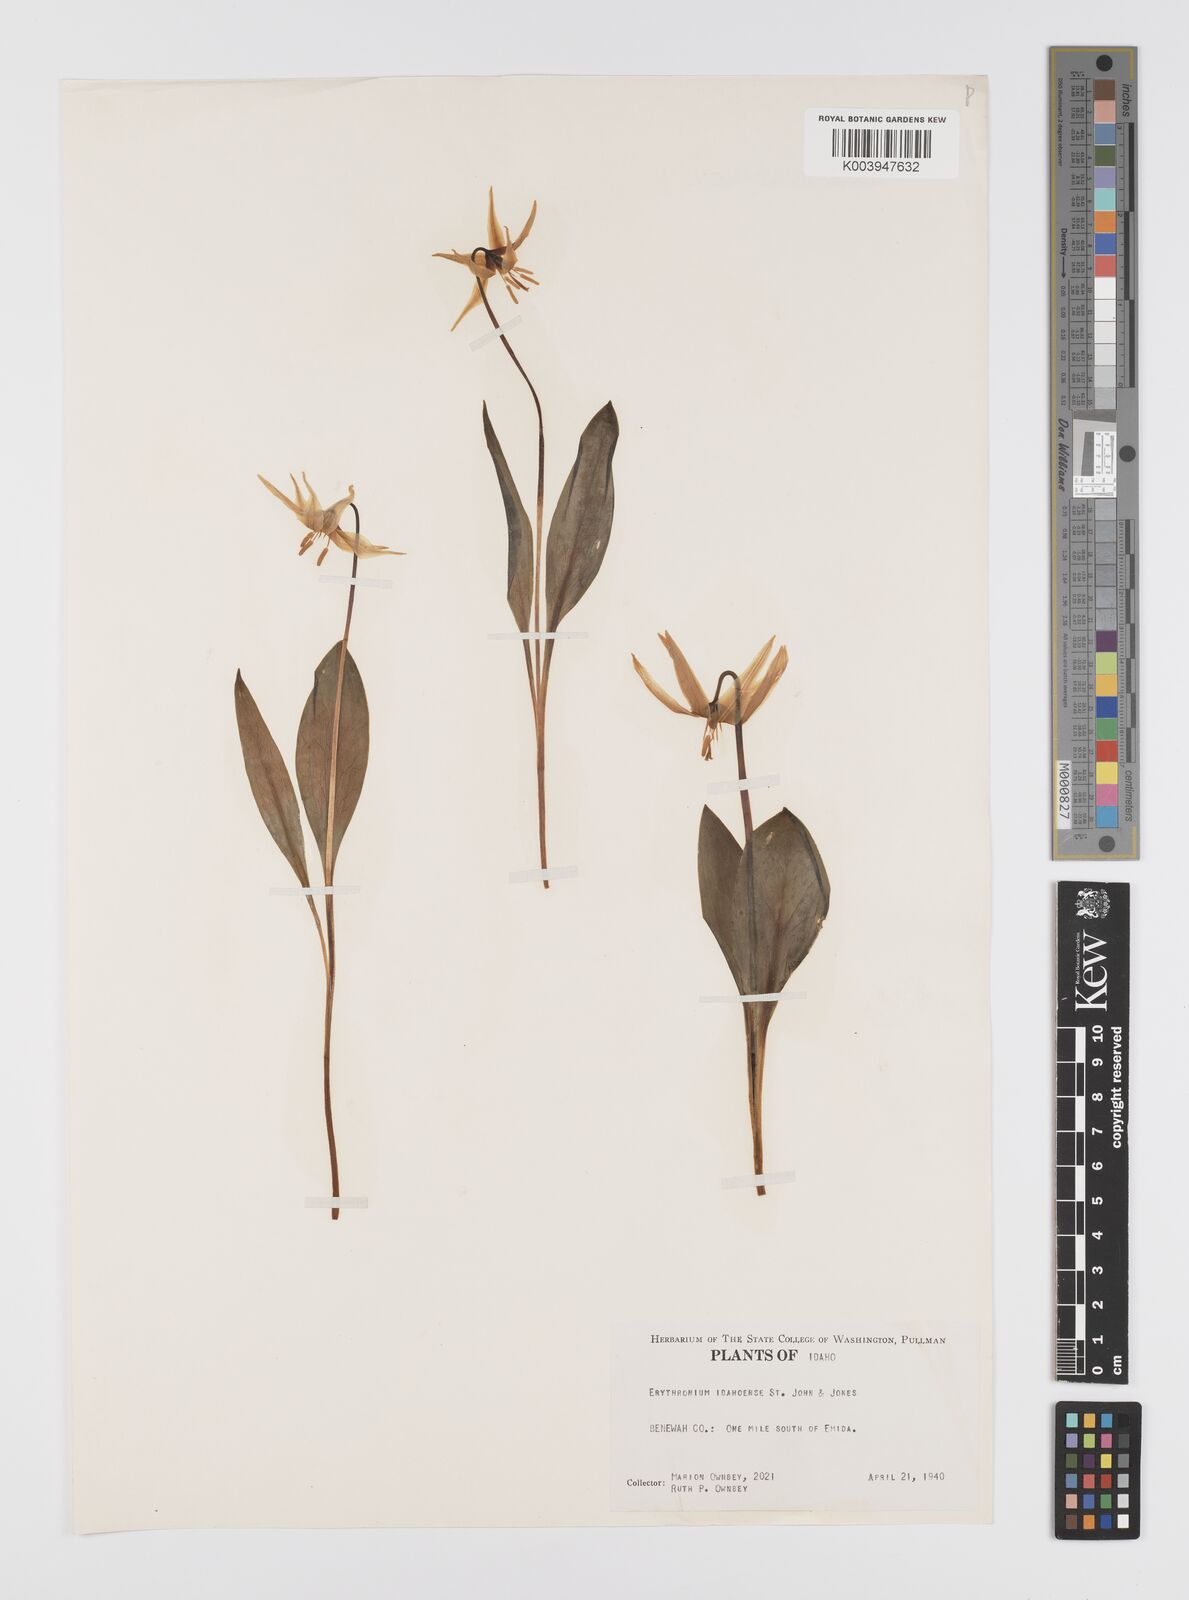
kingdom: Plantae
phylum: Tracheophyta
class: Liliopsida
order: Liliales
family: Liliaceae
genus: Erythronium
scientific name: Erythronium idahoense
